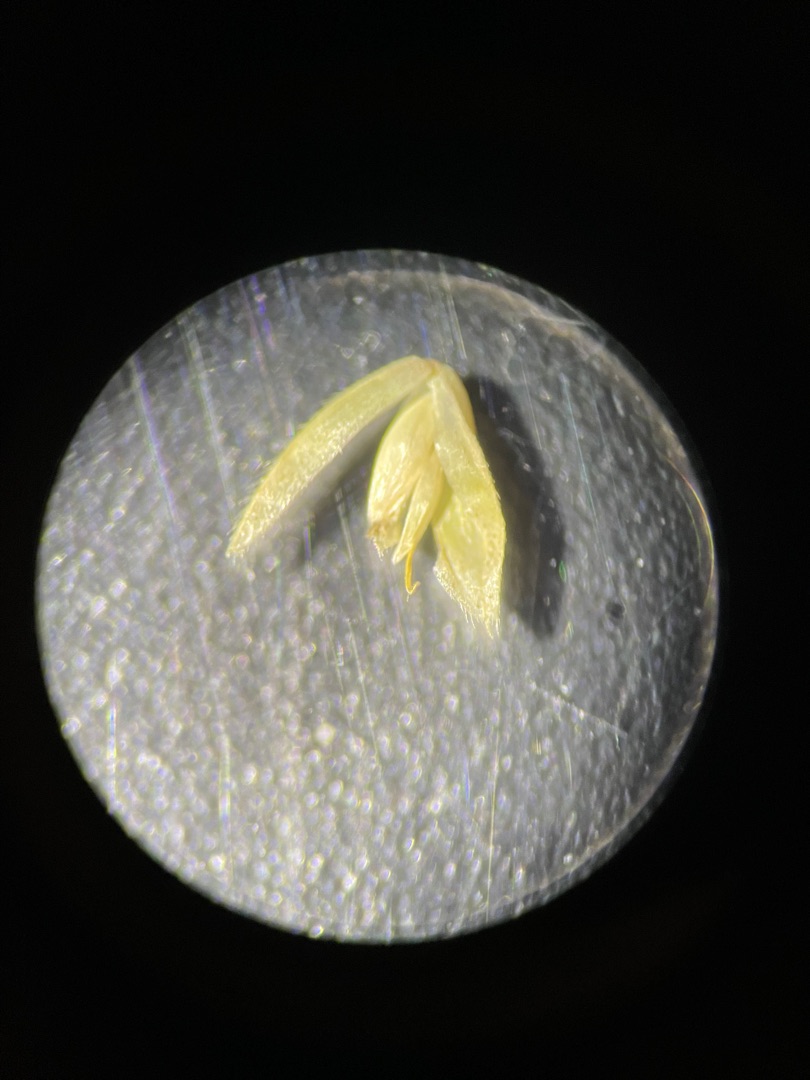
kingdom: Plantae
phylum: Tracheophyta
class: Liliopsida
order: Poales
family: Poaceae
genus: Holcus
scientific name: Holcus lanatus
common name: Fløjlsgræs
